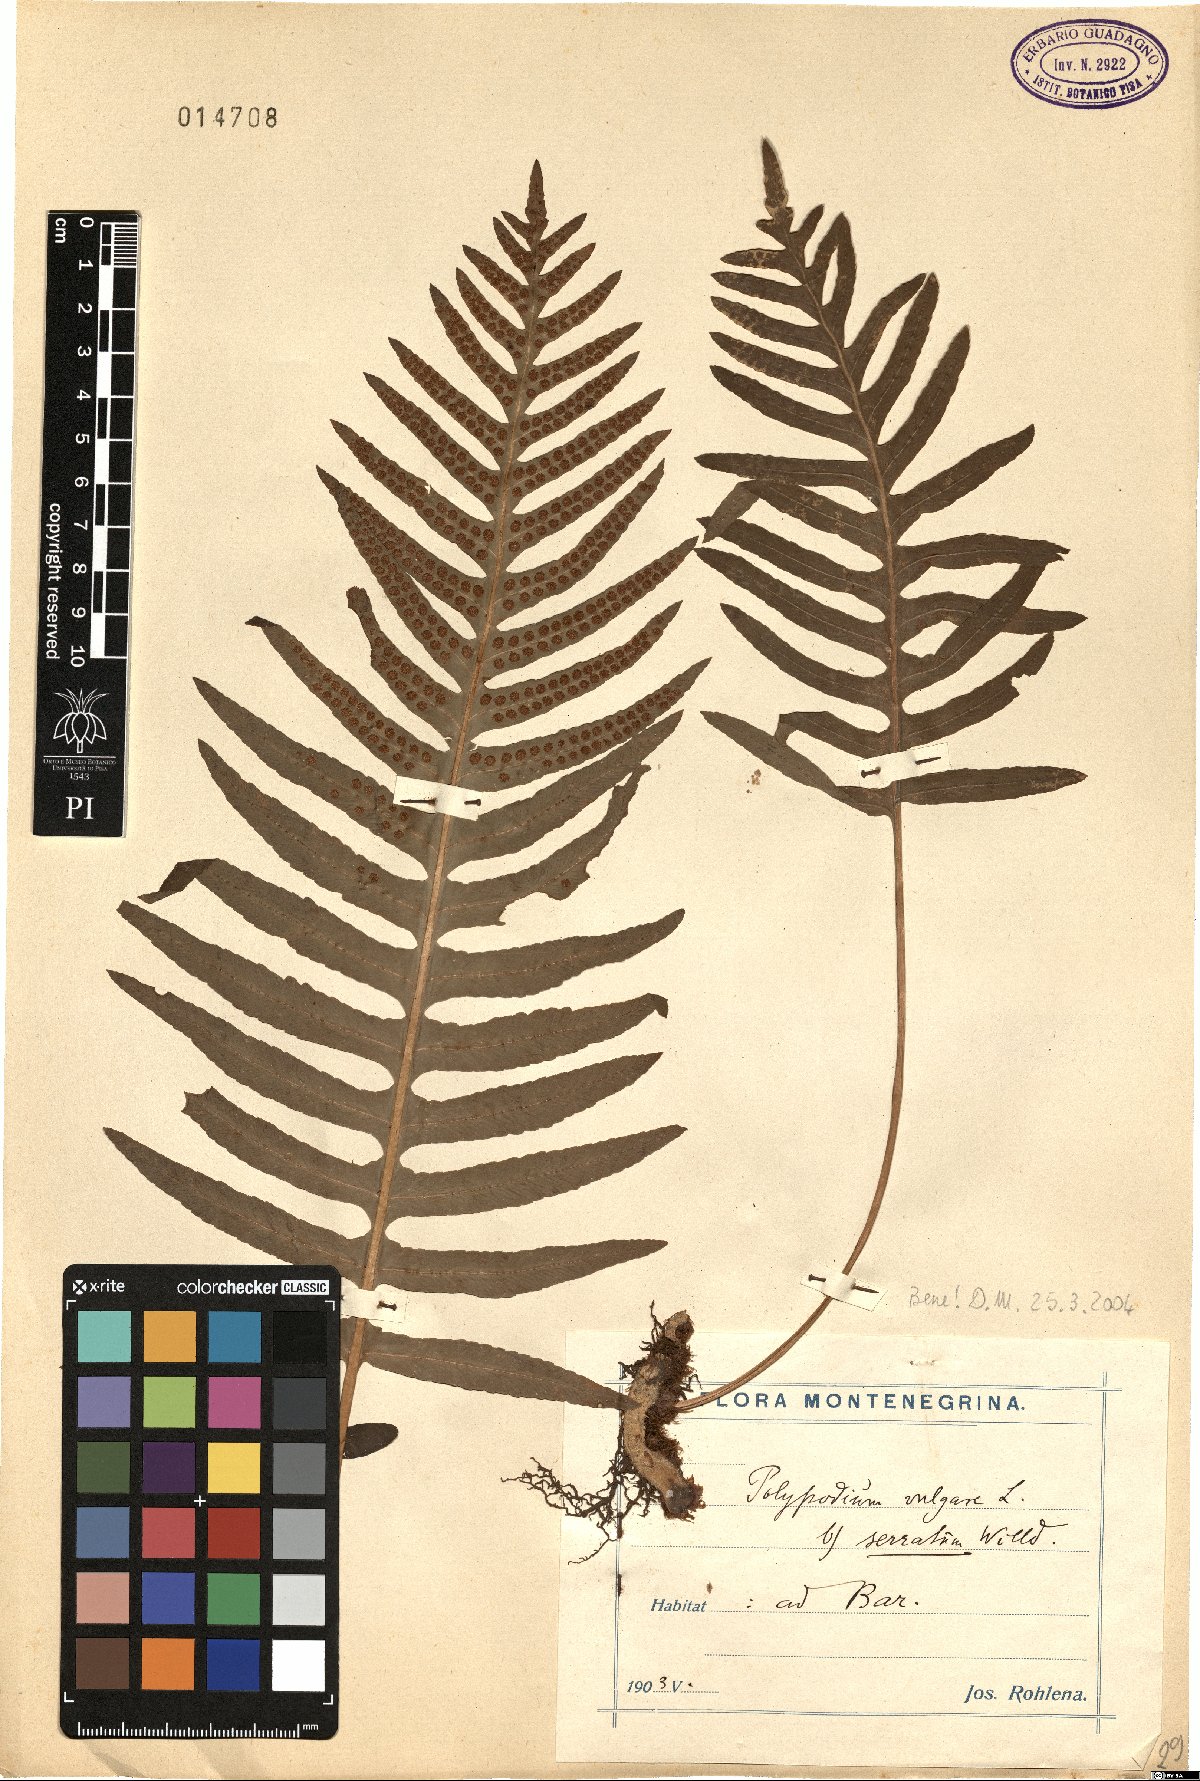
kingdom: Plantae
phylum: Tracheophyta
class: Polypodiopsida
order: Polypodiales
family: Polypodiaceae
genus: Polypodium
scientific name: Polypodium cambricum
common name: Southern polypody
